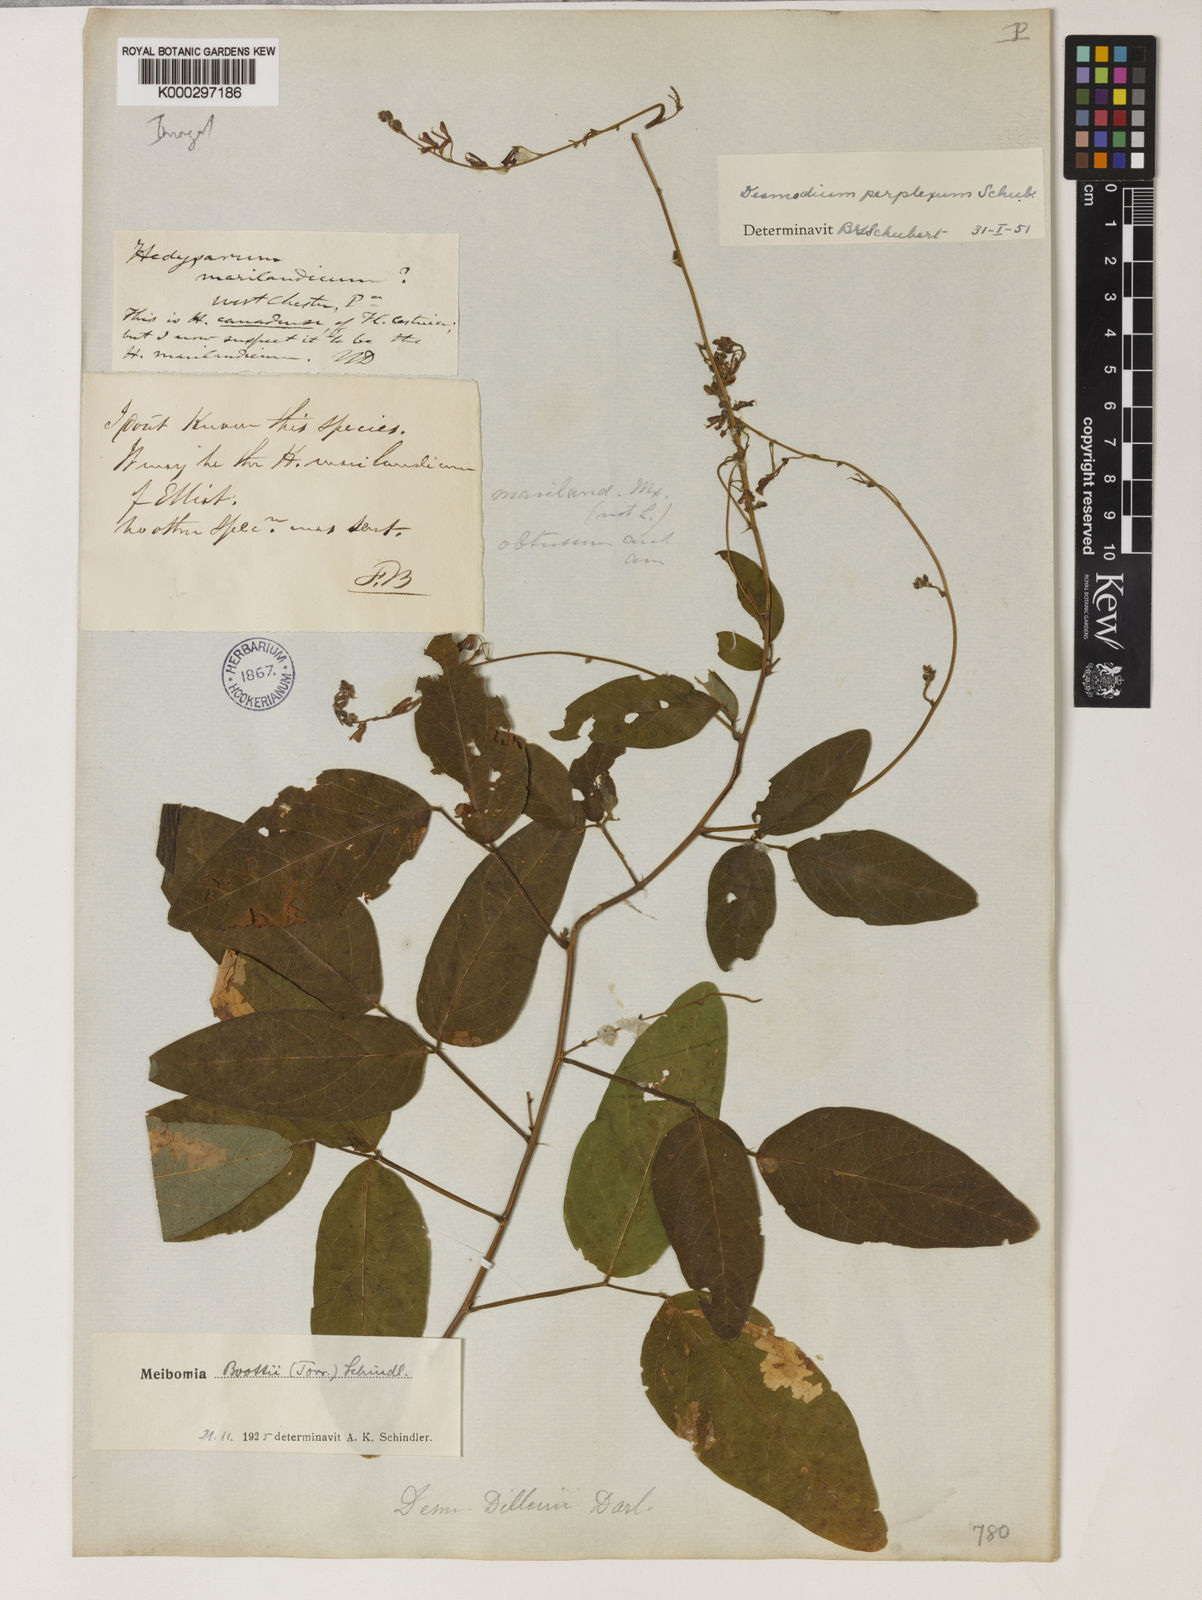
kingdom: Plantae
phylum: Tracheophyta
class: Magnoliopsida
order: Fabales
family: Fabaceae
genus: Desmodium
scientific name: Desmodium perplexum
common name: Perplexed tick trefoil
